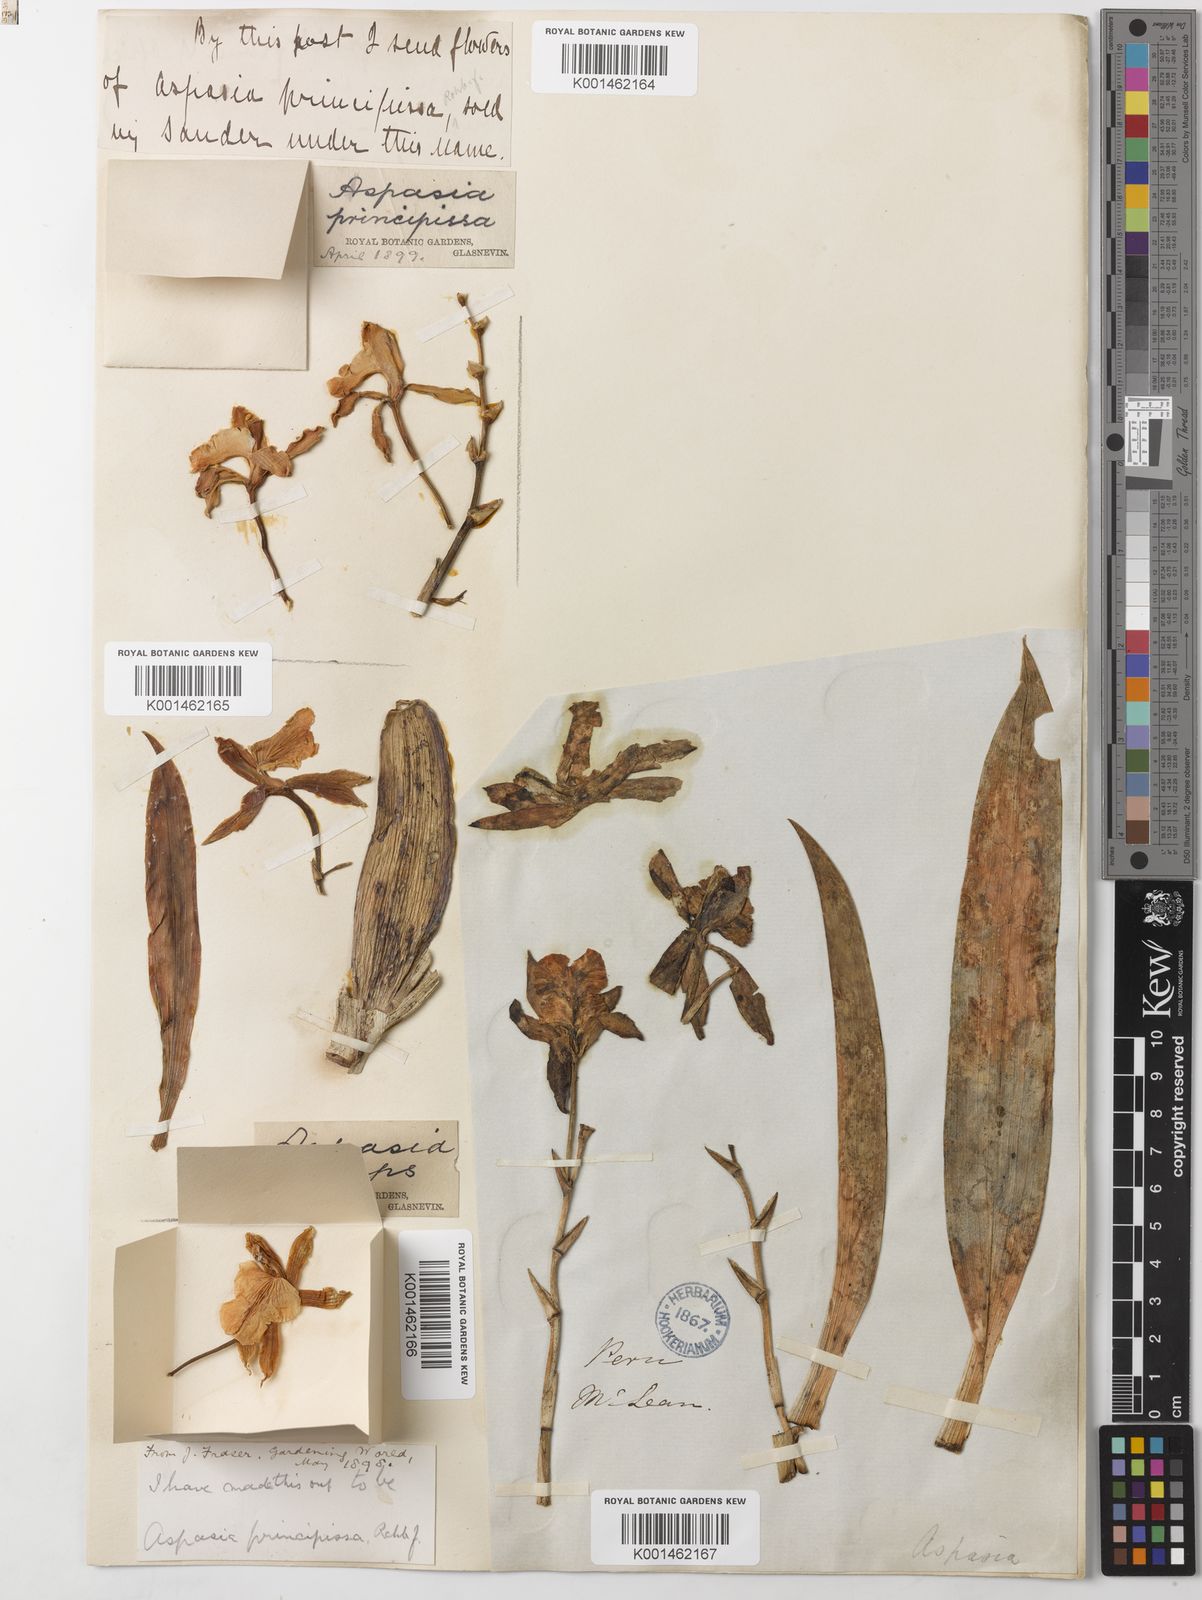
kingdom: Plantae
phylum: Tracheophyta
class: Liliopsida
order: Asparagales
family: Orchidaceae
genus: Aspasia
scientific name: Aspasia epidendroides
